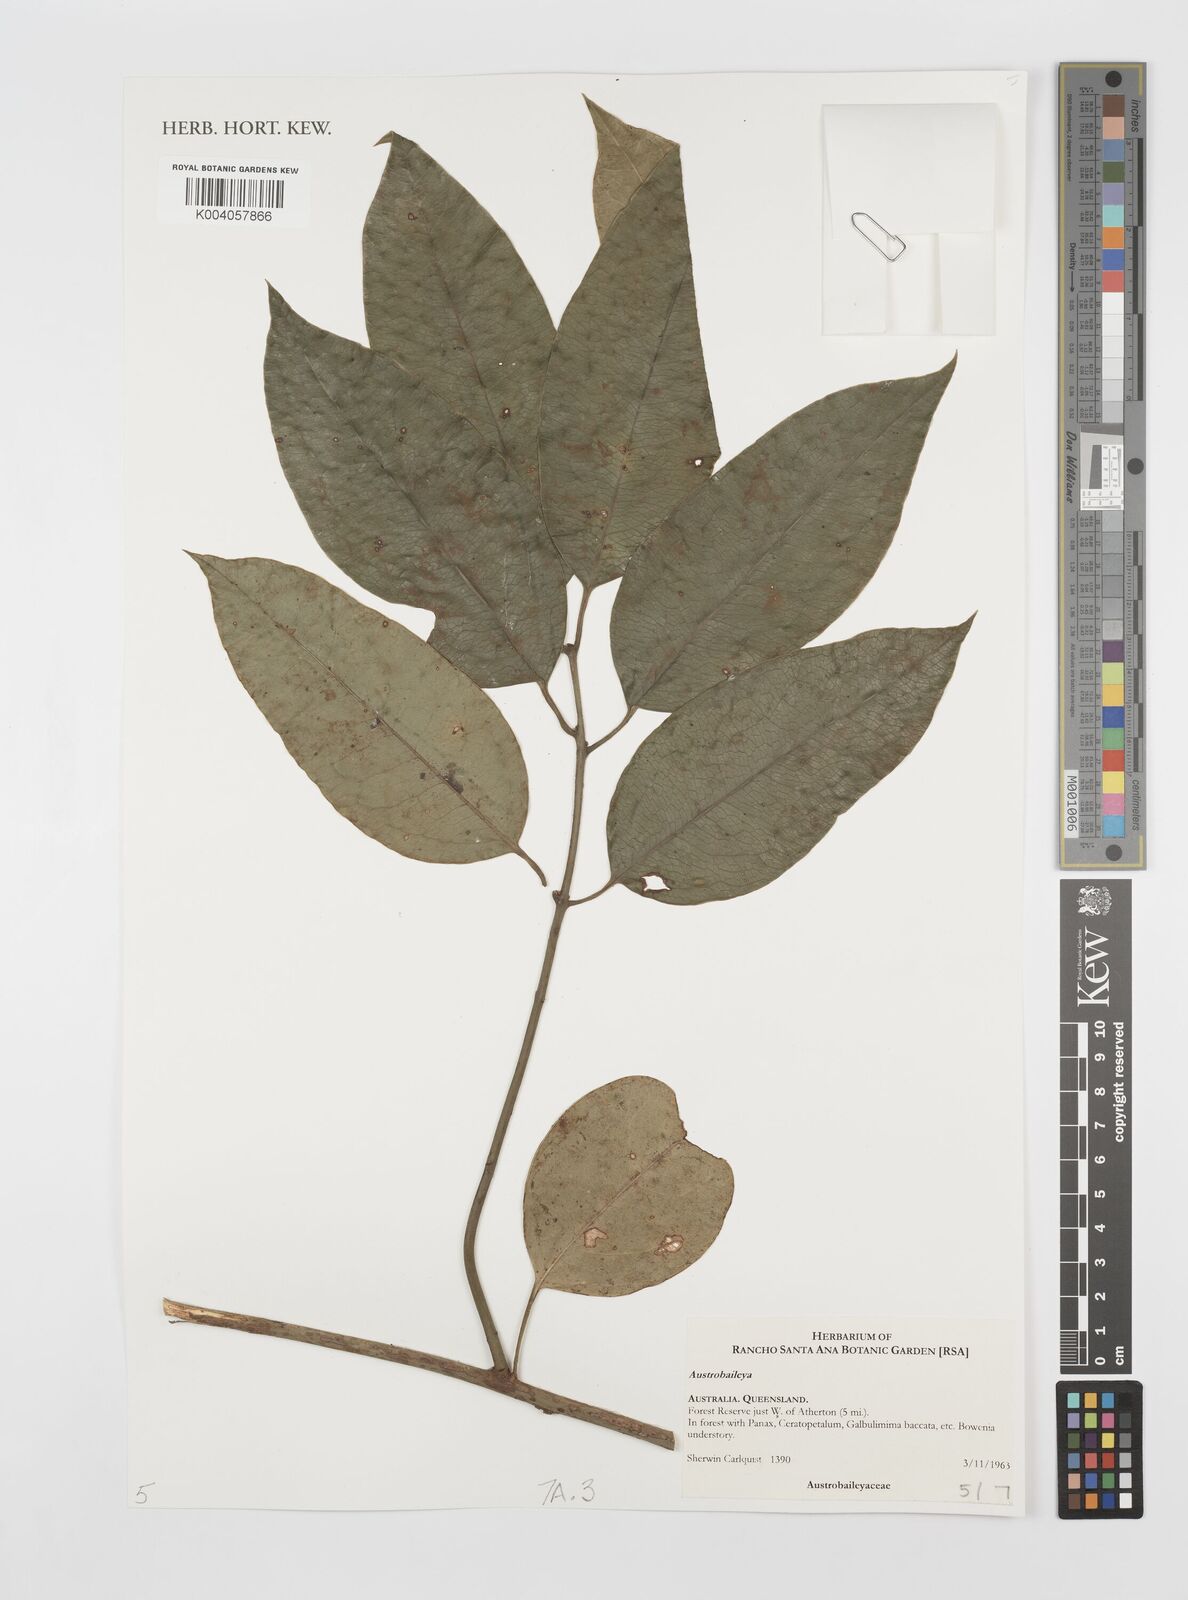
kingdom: Plantae
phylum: Tracheophyta
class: Magnoliopsida
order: Austrobaileyales
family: Austrobaileyaceae
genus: Austrobaileya
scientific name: Austrobaileya scandens
